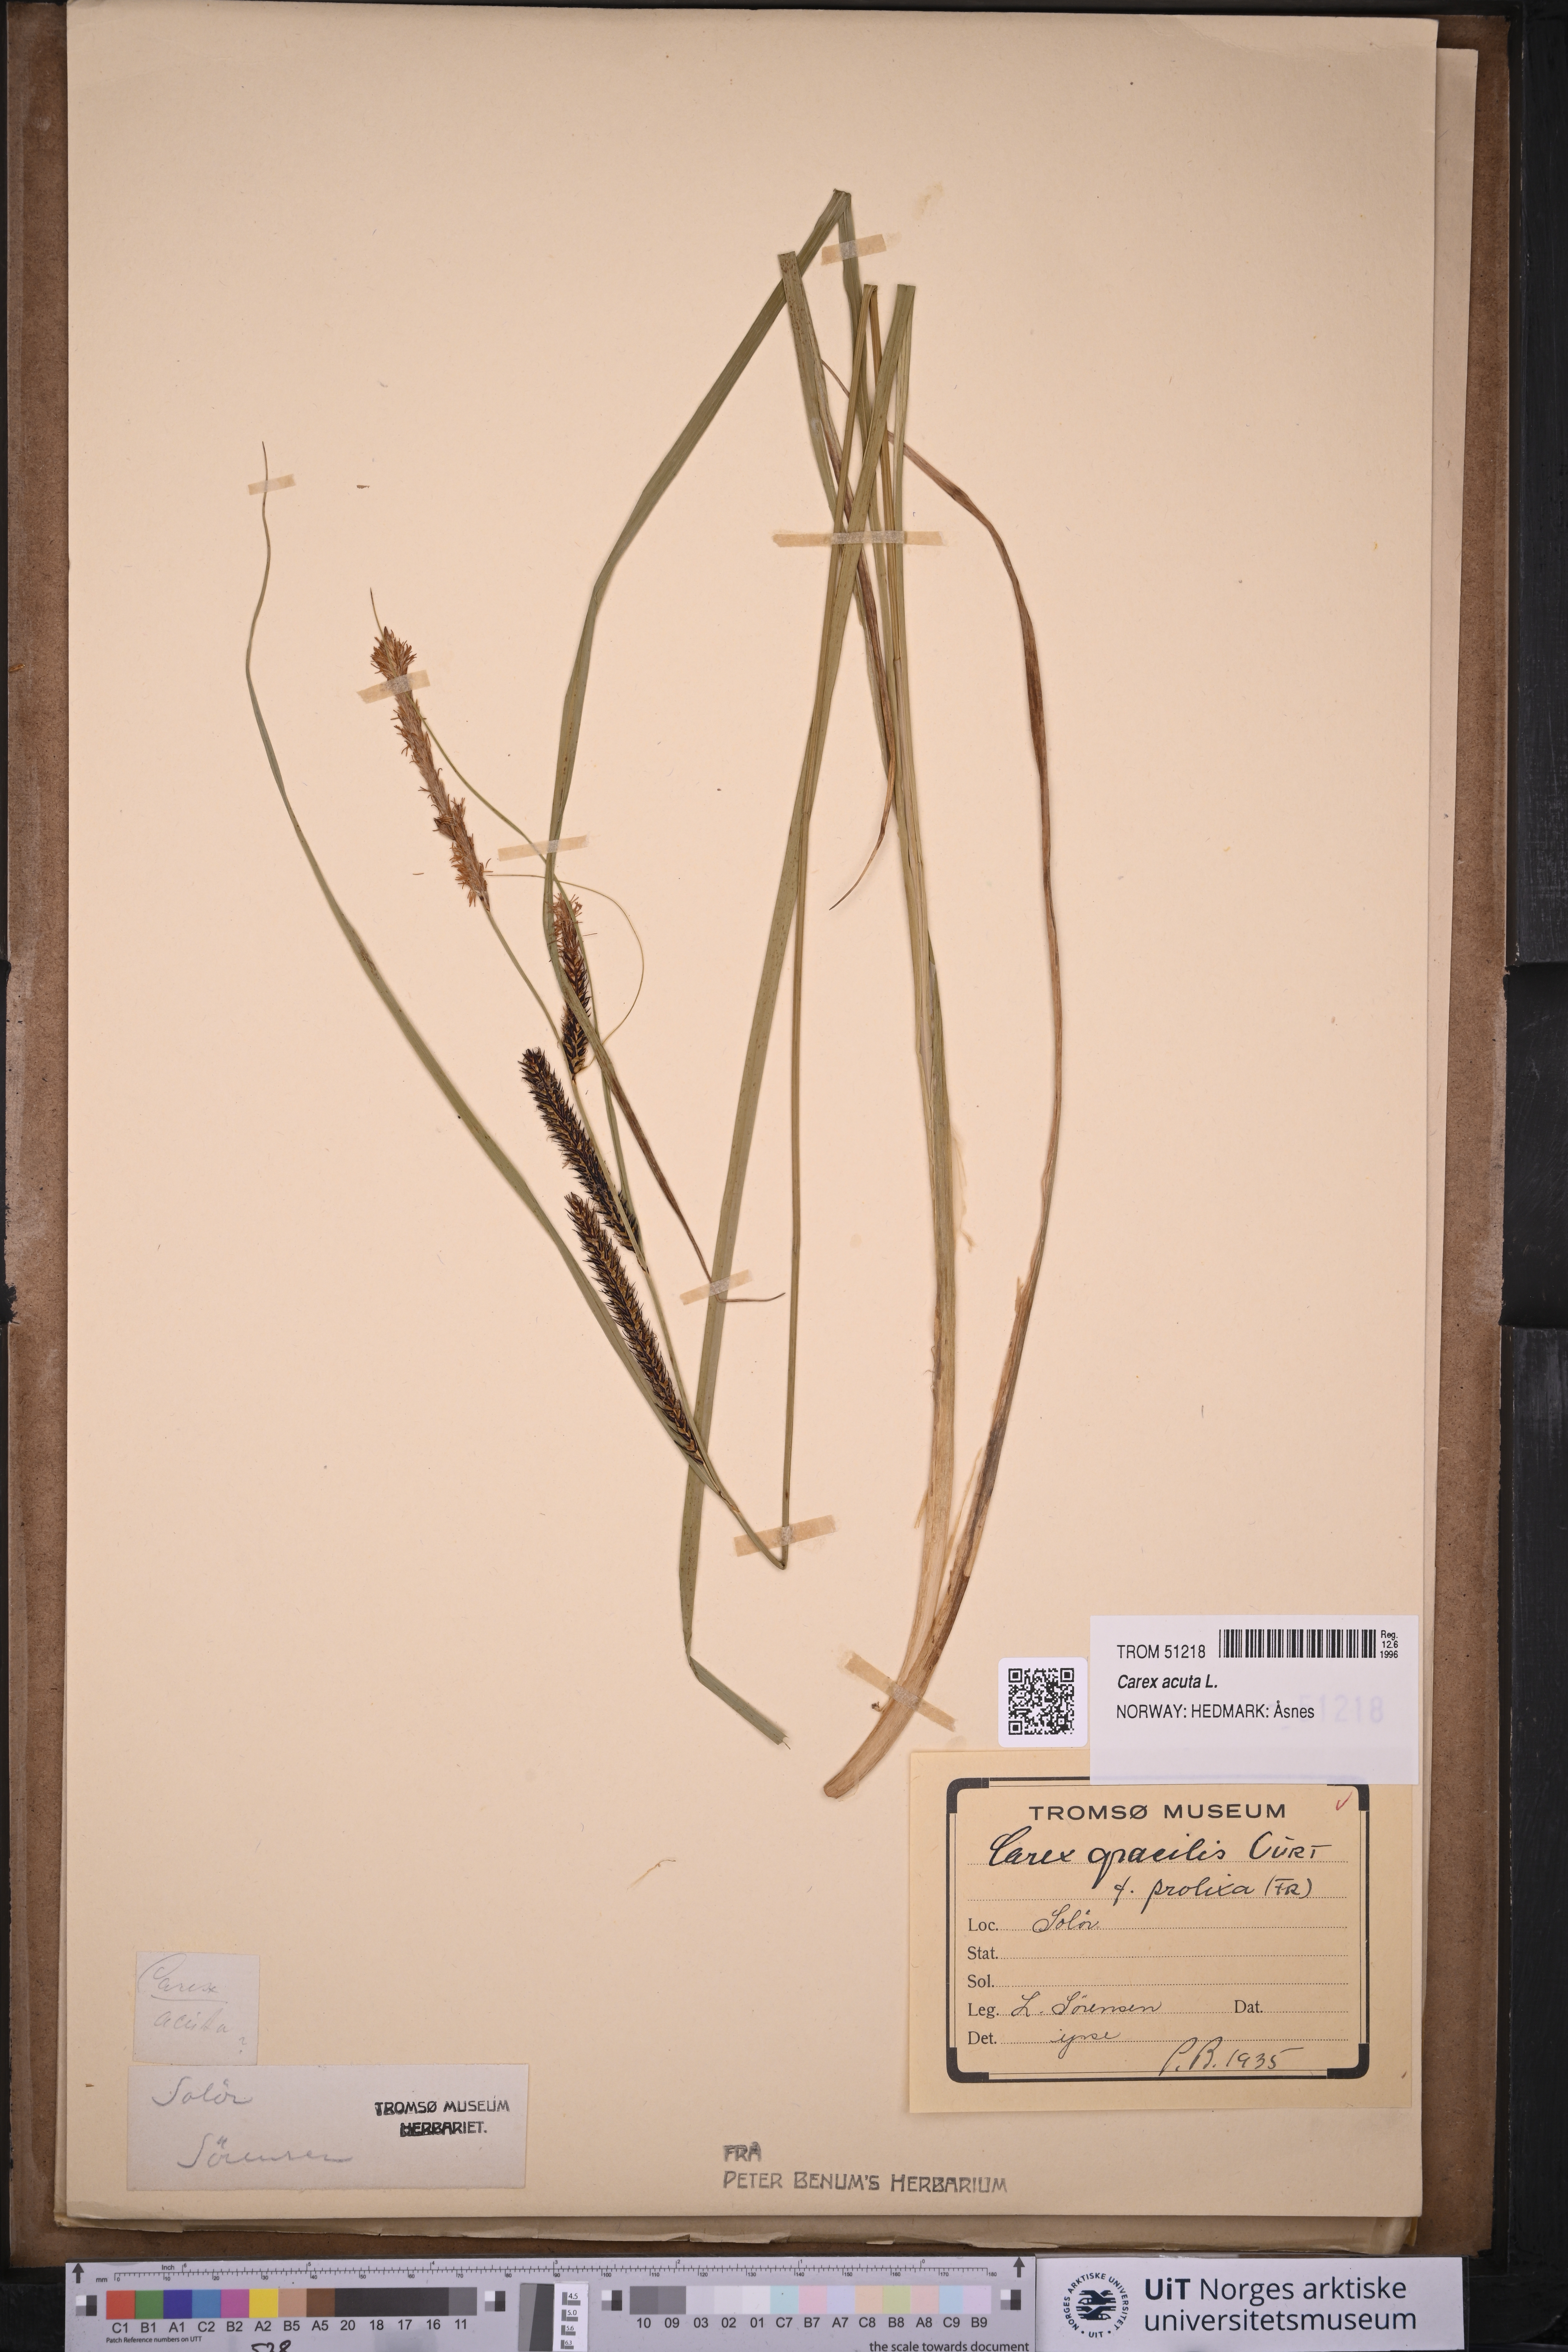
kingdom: Plantae
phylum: Tracheophyta
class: Liliopsida
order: Poales
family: Cyperaceae
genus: Carex
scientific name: Carex acuta
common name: Slender tufted-sedge
